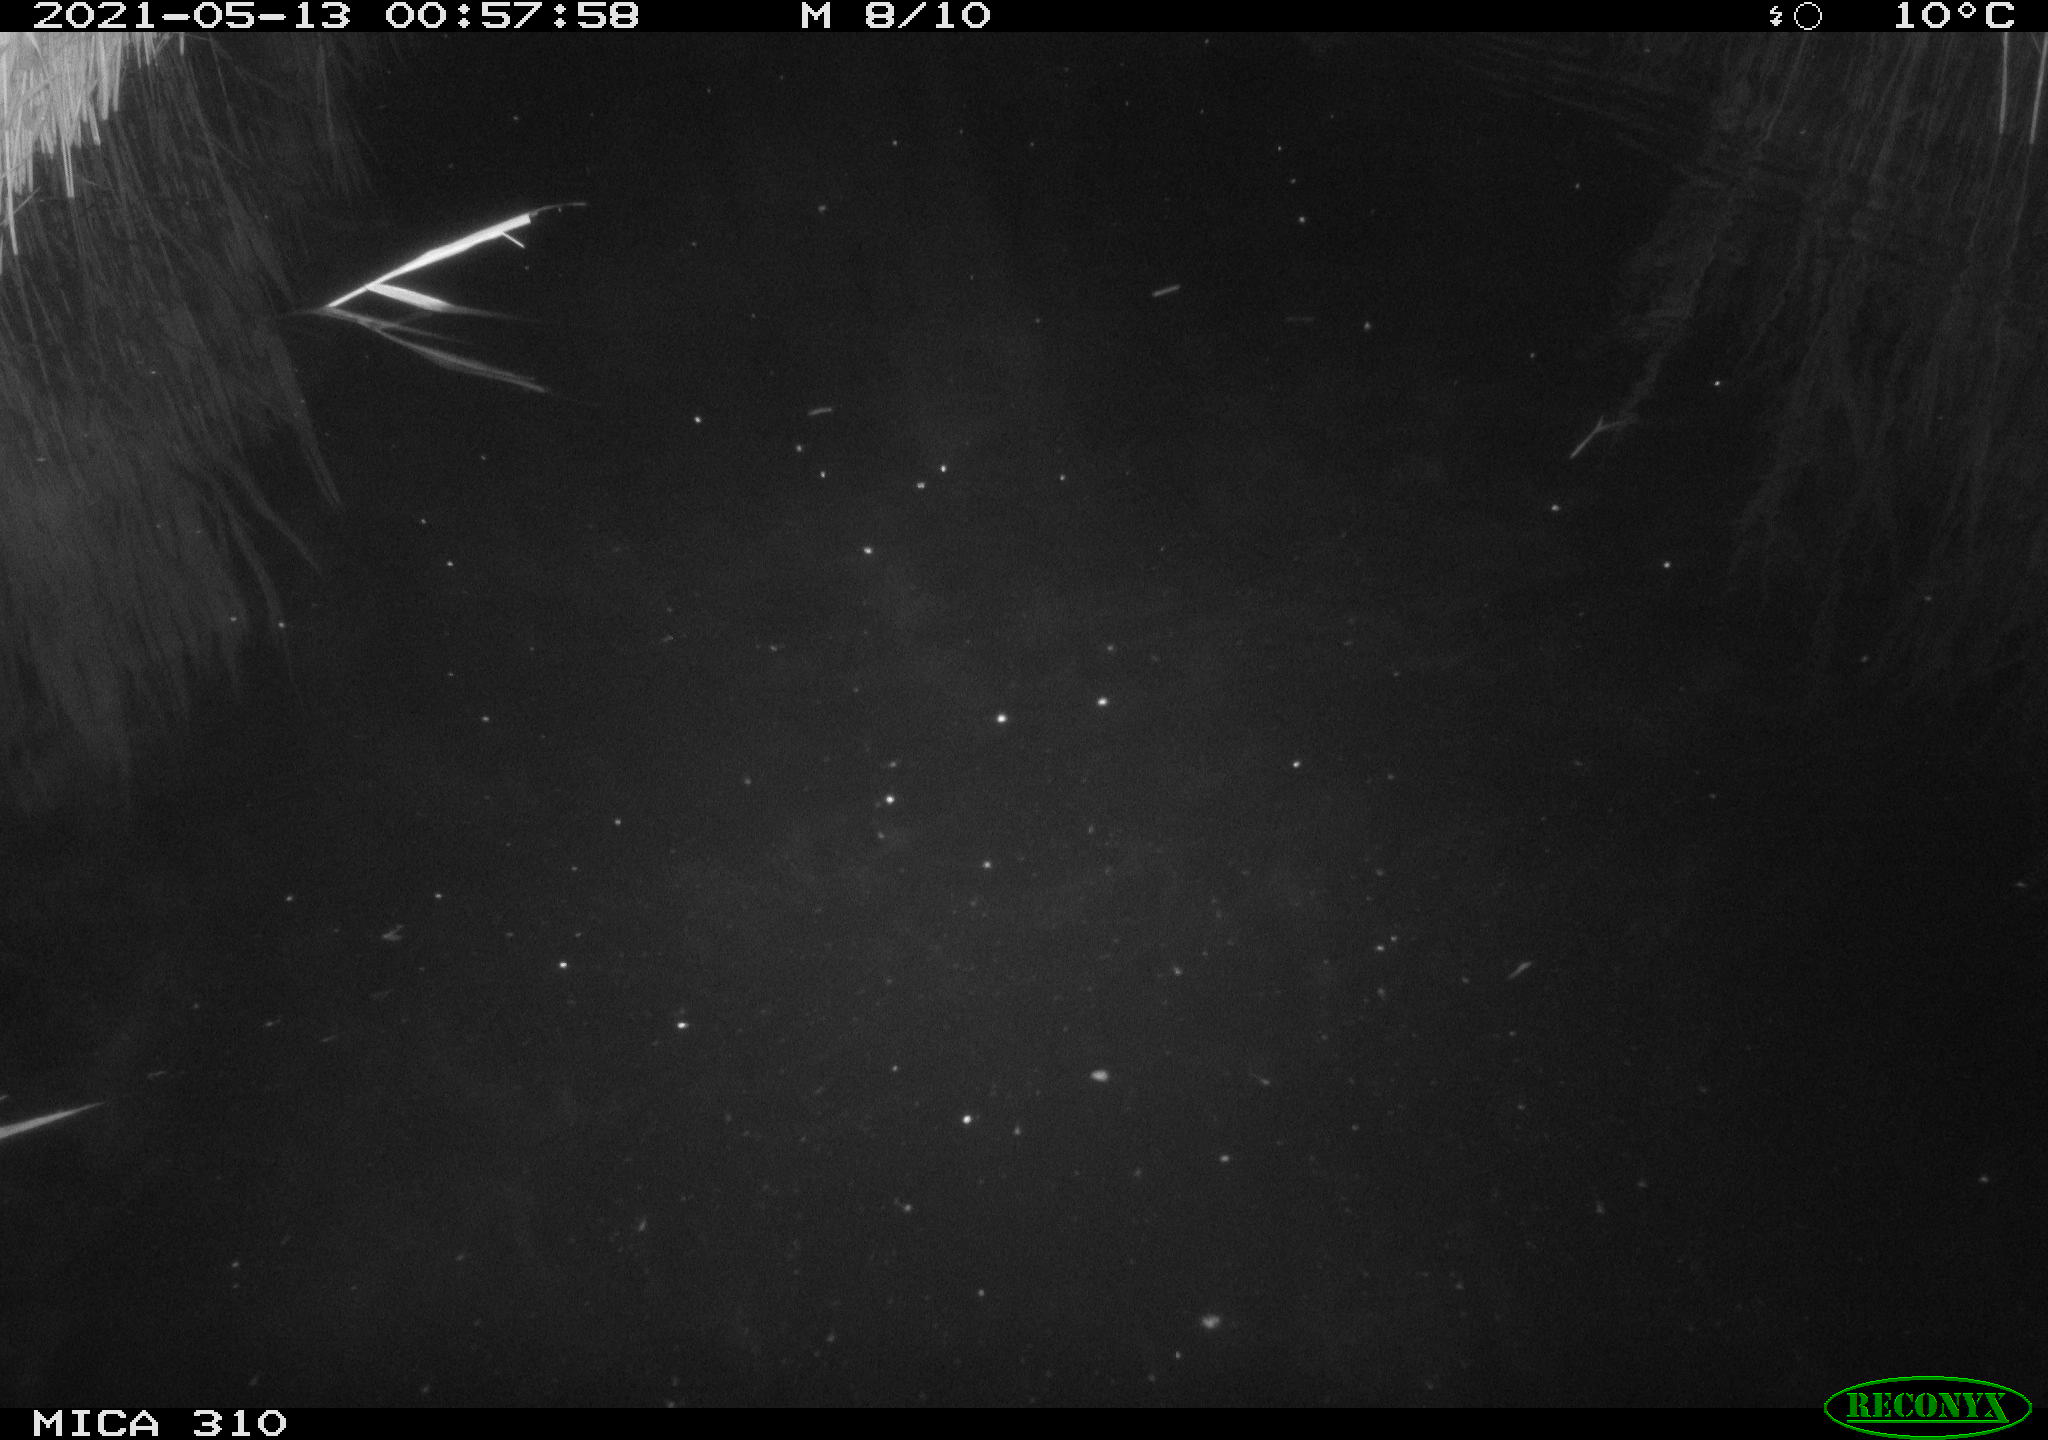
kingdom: Animalia
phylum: Chordata
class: Aves
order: Anseriformes
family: Anatidae
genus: Anas
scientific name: Anas platyrhynchos
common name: Mallard
